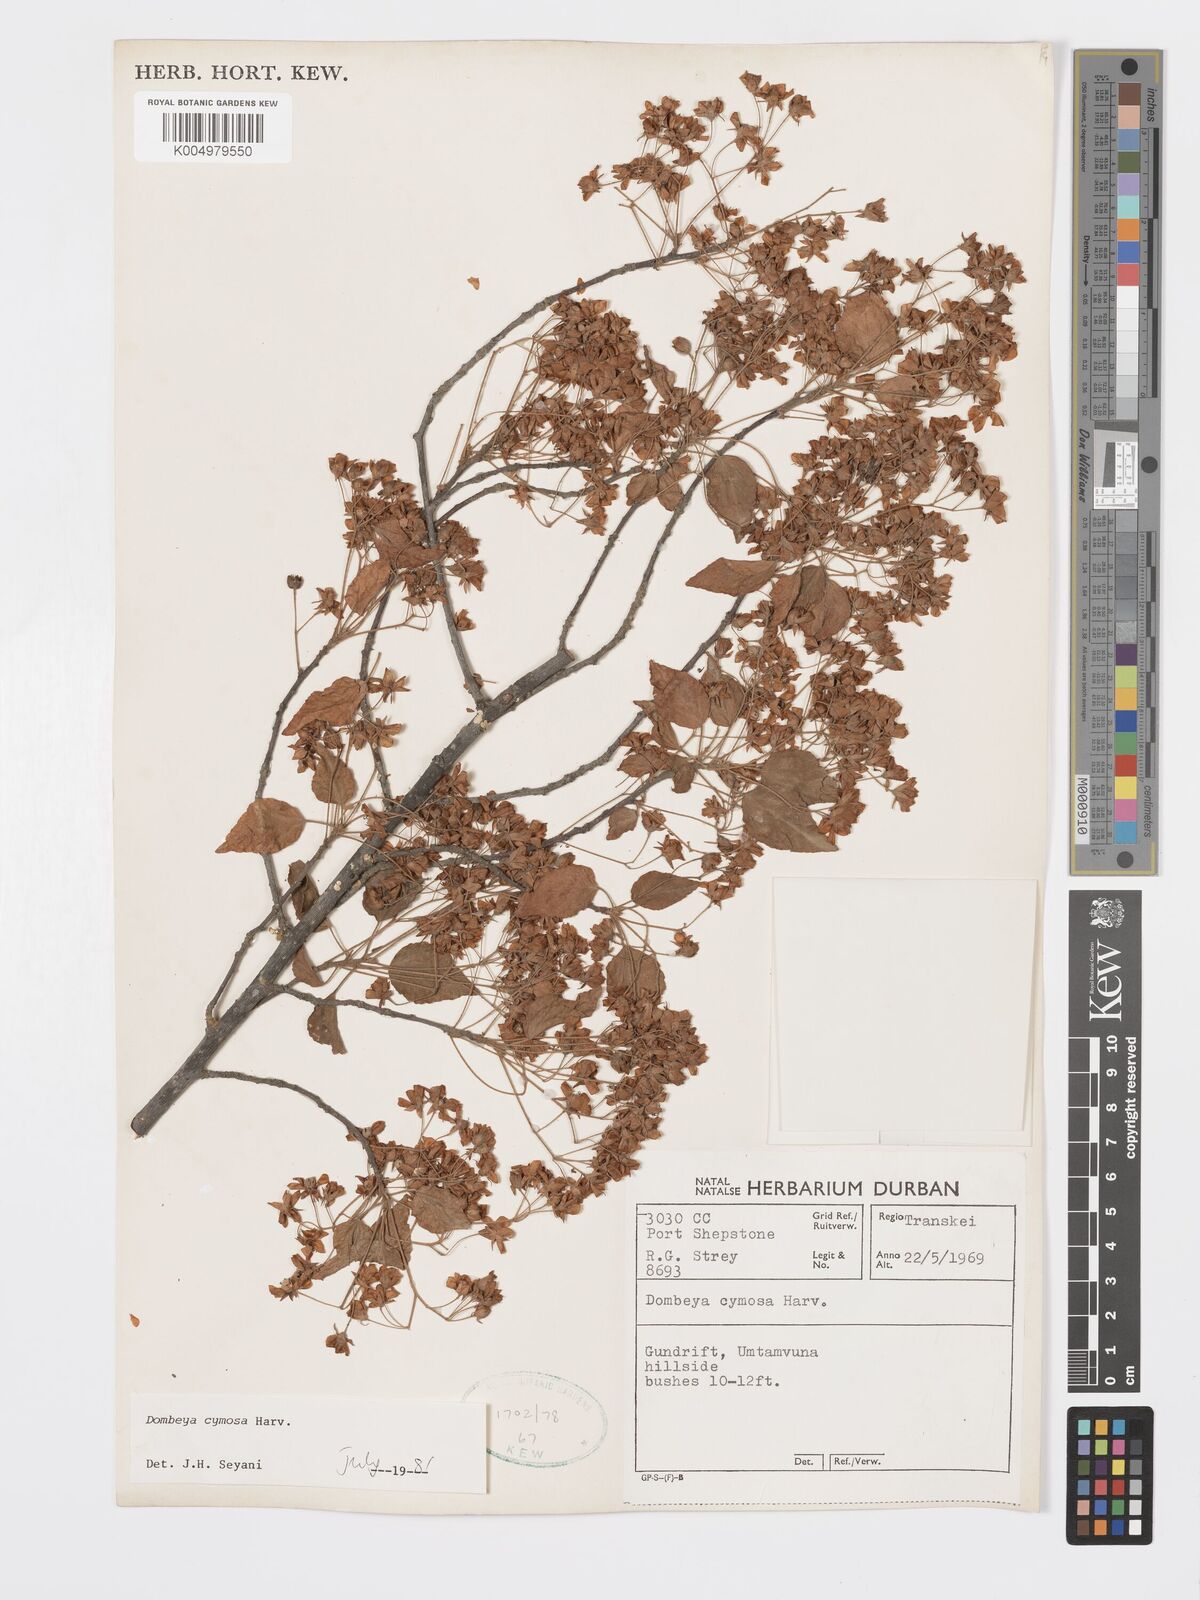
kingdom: Plantae
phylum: Tracheophyta
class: Magnoliopsida
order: Malvales
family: Malvaceae
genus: Dombeya
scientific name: Dombeya cymosa
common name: Hairless dombeya
